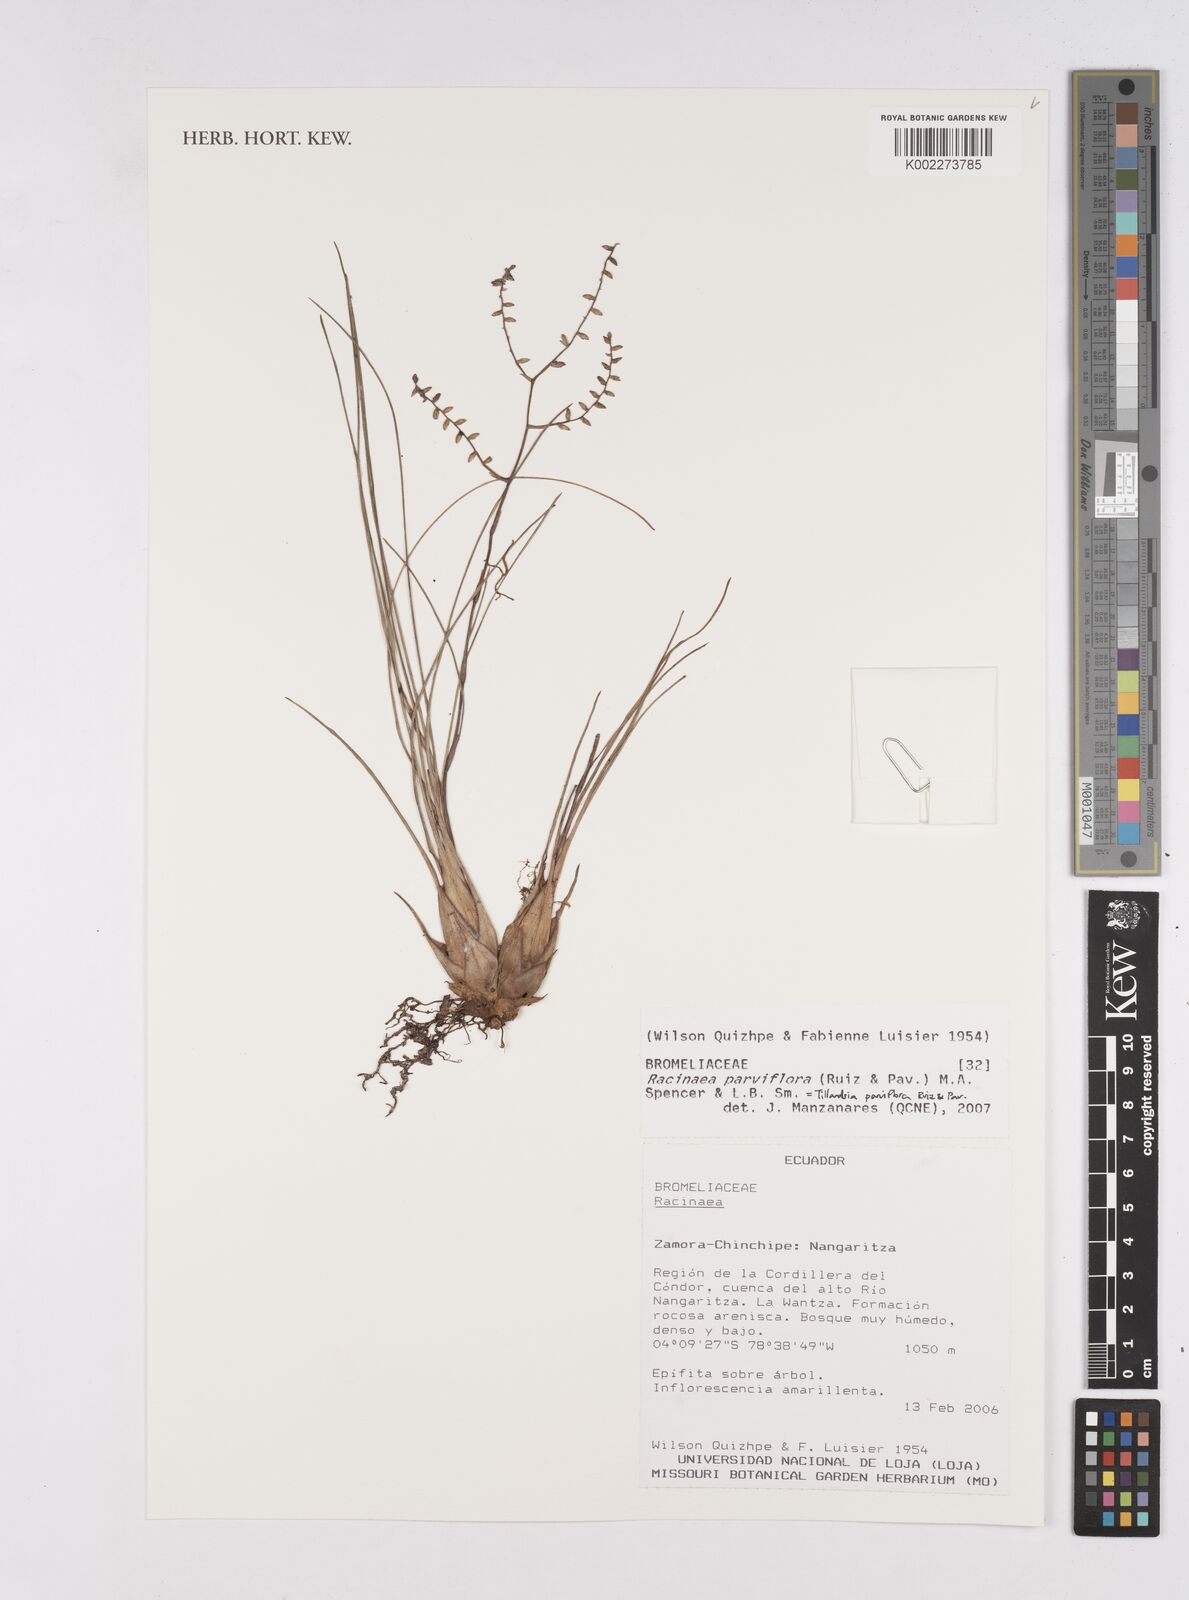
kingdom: Plantae
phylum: Tracheophyta
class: Liliopsida
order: Poales
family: Bromeliaceae
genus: Racinaea
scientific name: Racinaea parviflora
